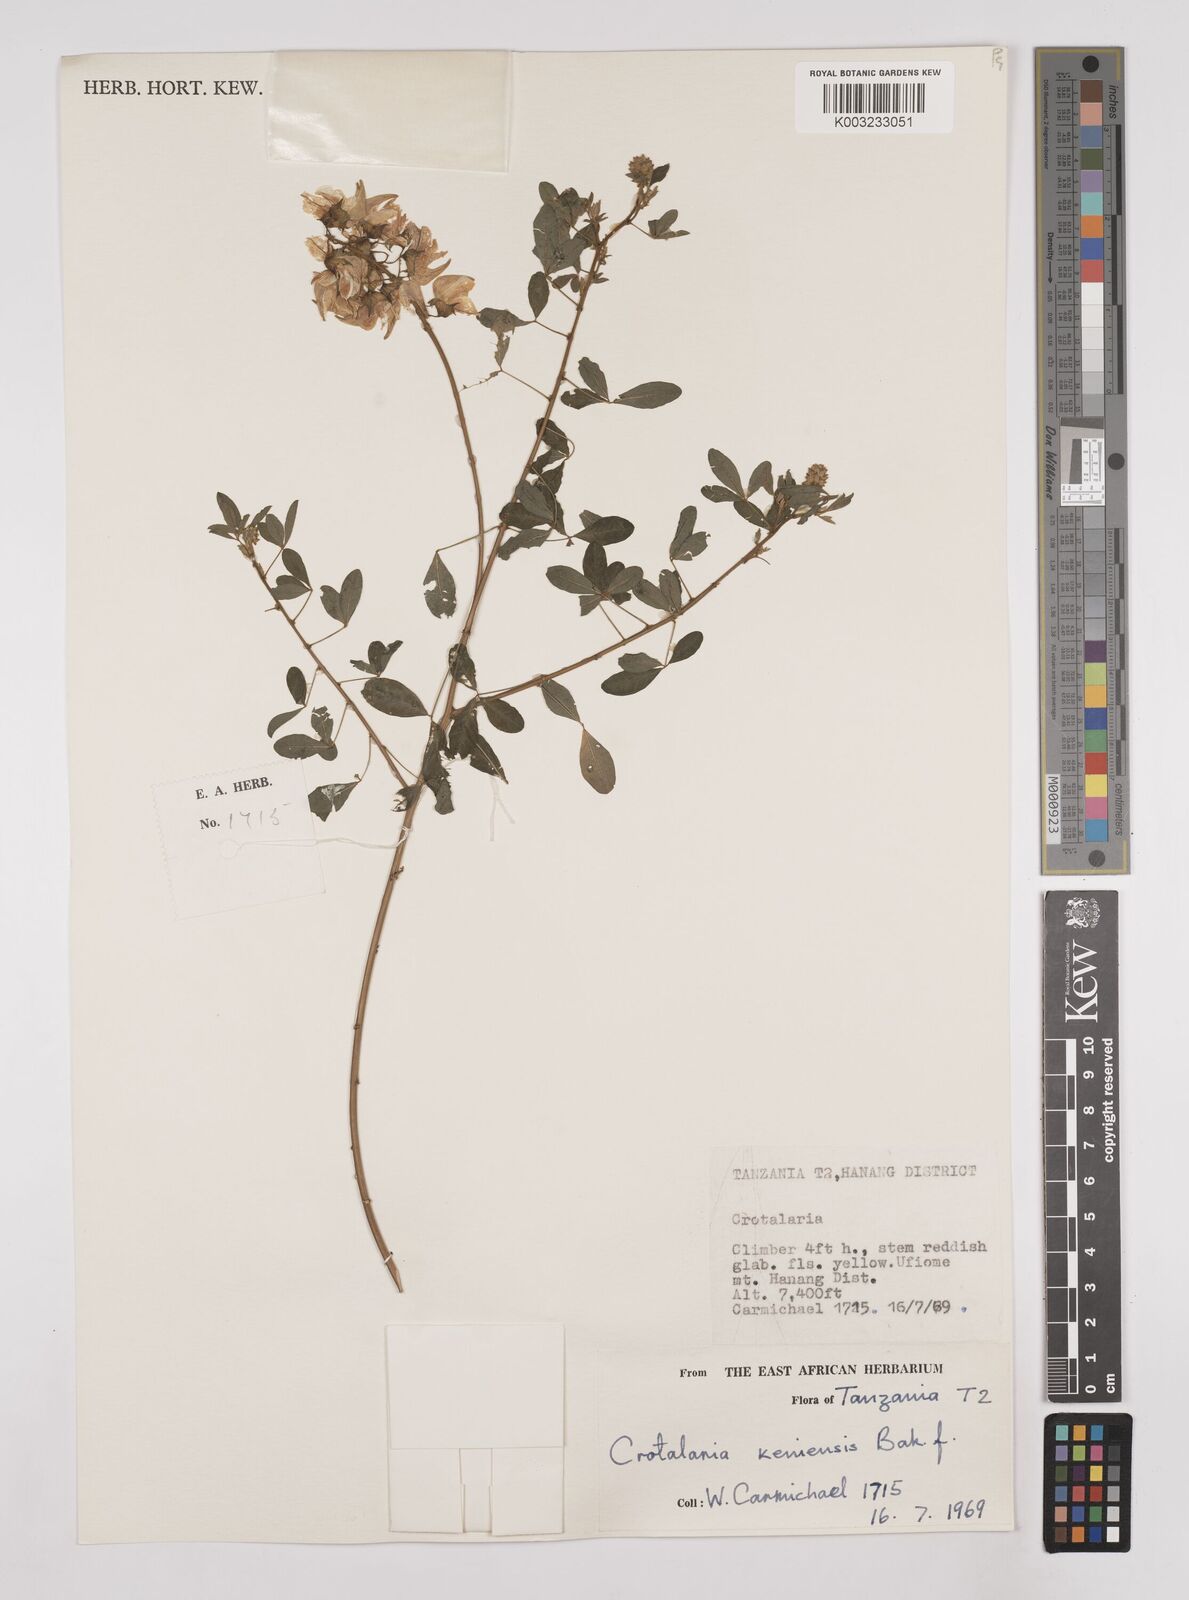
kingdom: Plantae
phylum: Tracheophyta
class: Magnoliopsida
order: Fabales
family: Fabaceae
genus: Crotalaria
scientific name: Crotalaria keniensis
